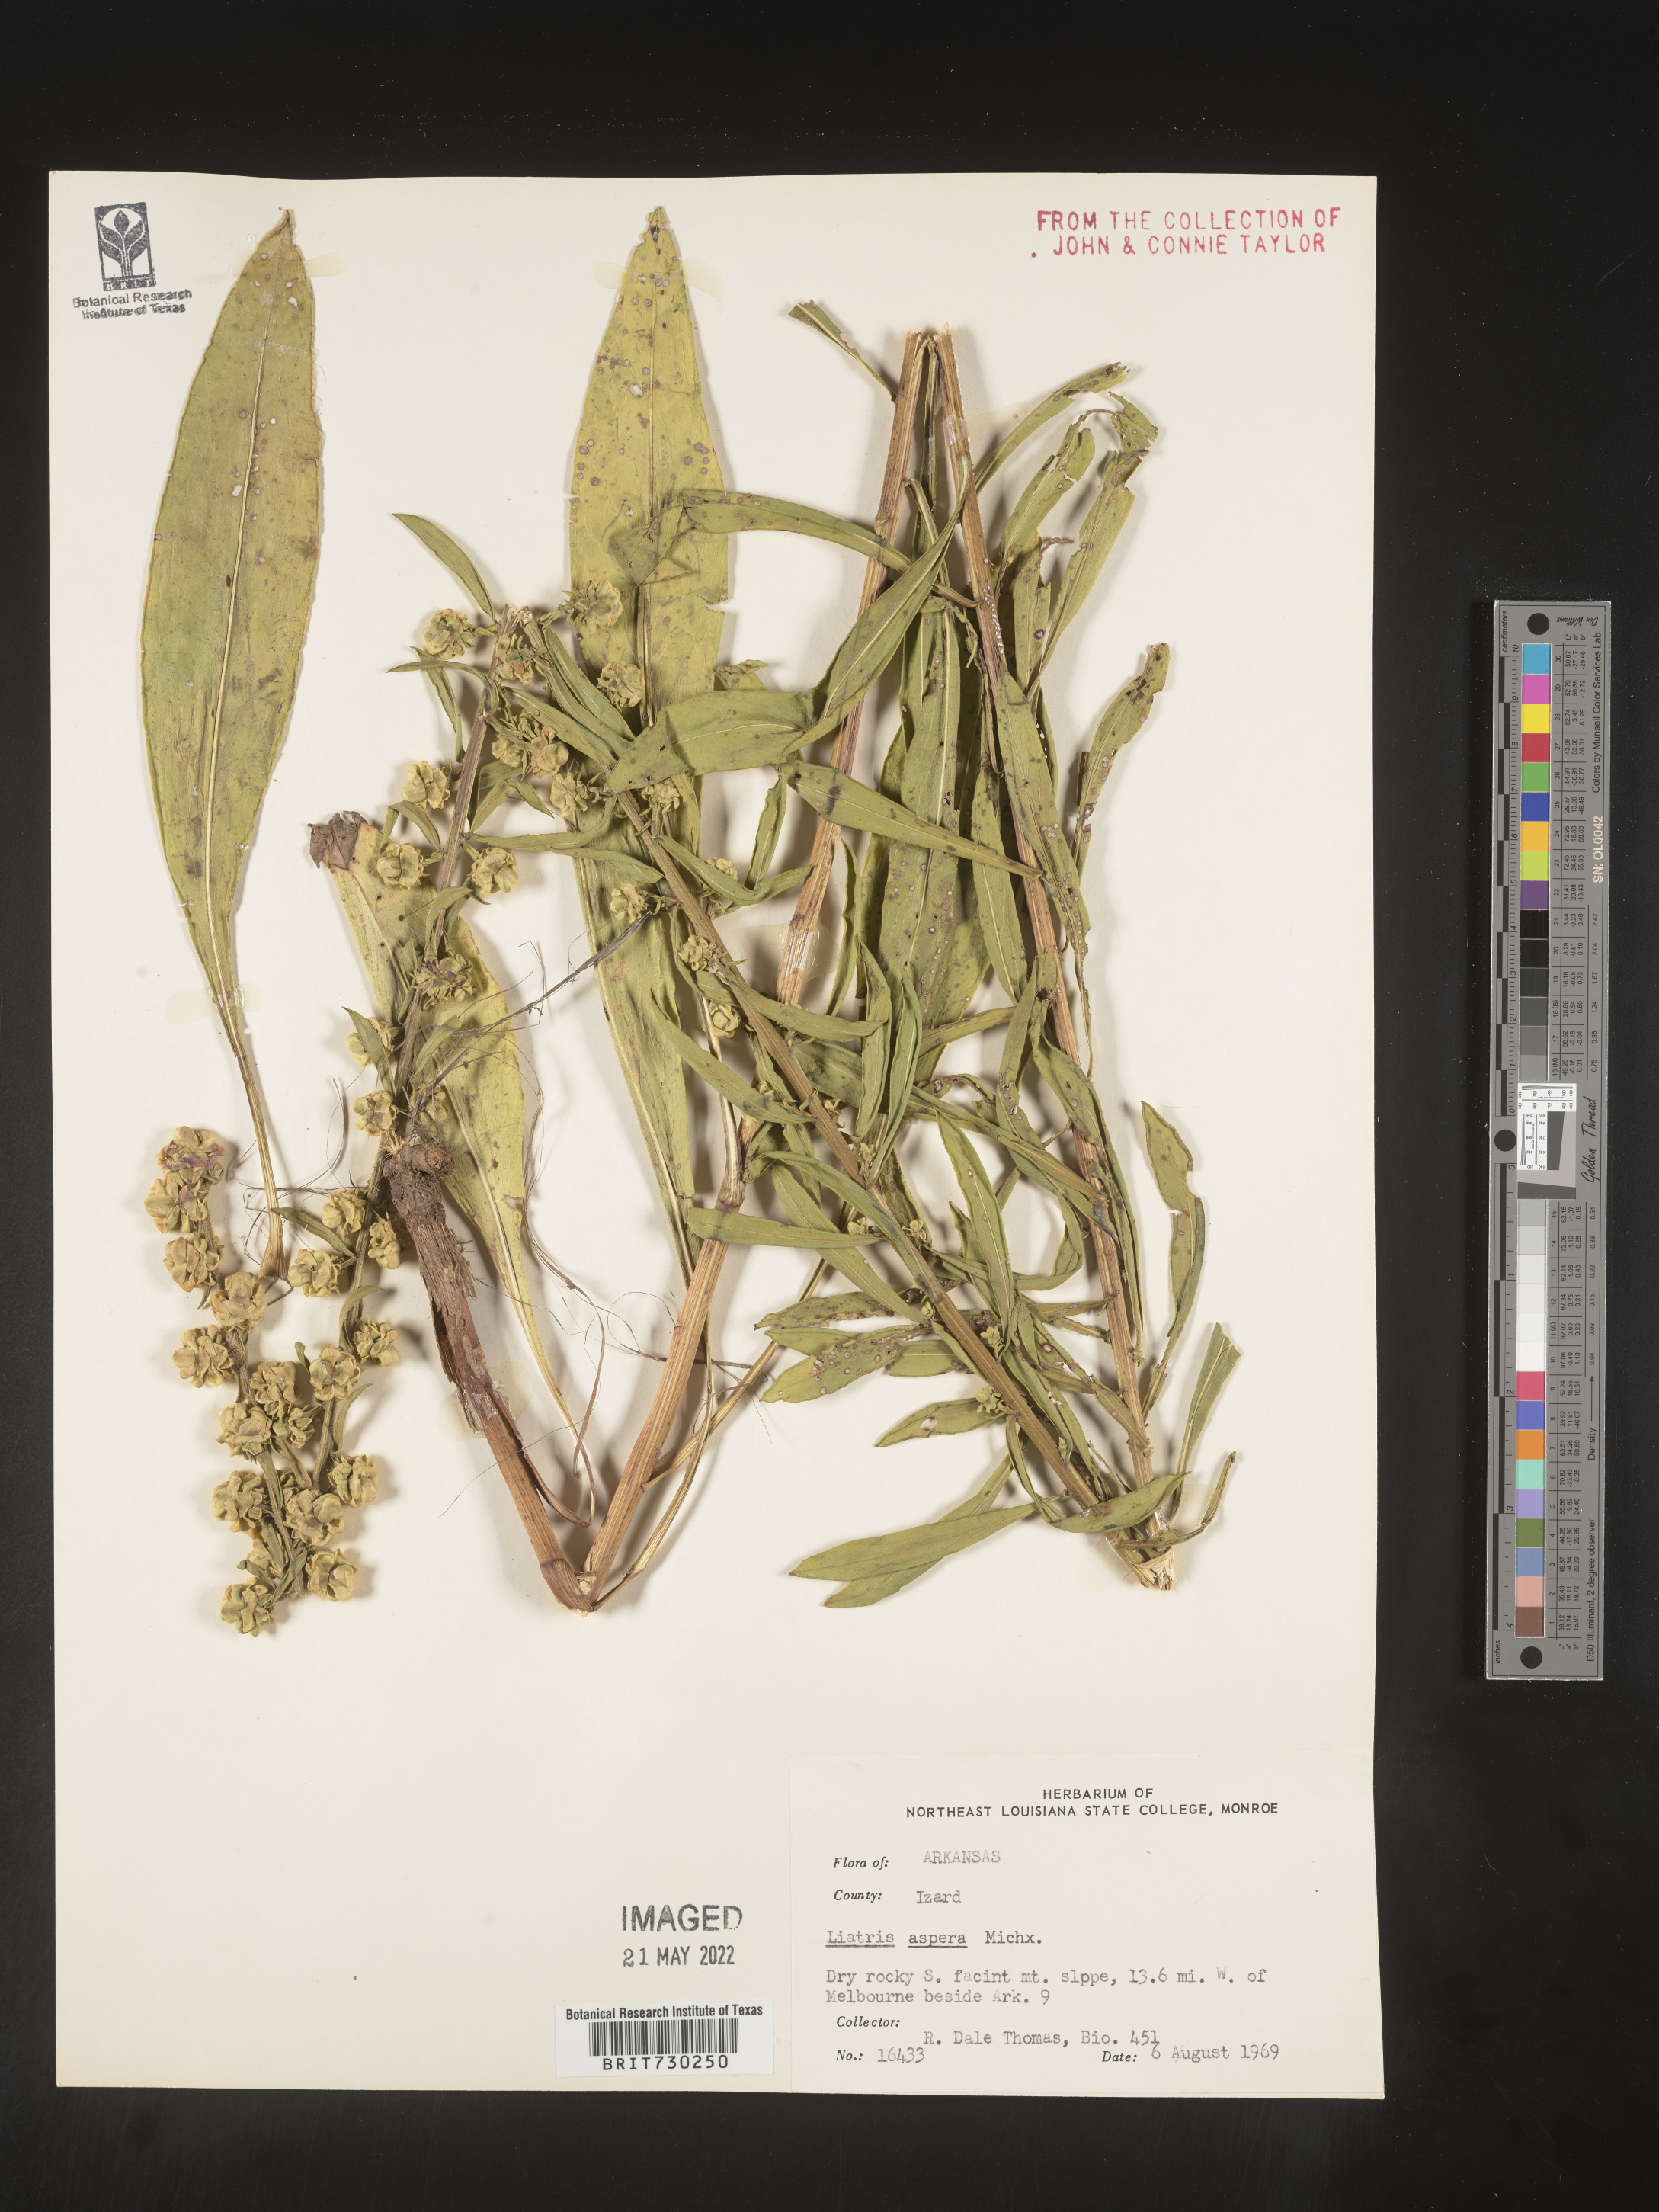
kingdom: Plantae
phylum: Tracheophyta
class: Magnoliopsida
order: Asterales
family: Asteraceae
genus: Liatris
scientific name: Liatris aspera
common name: Lacerate blazing-star
